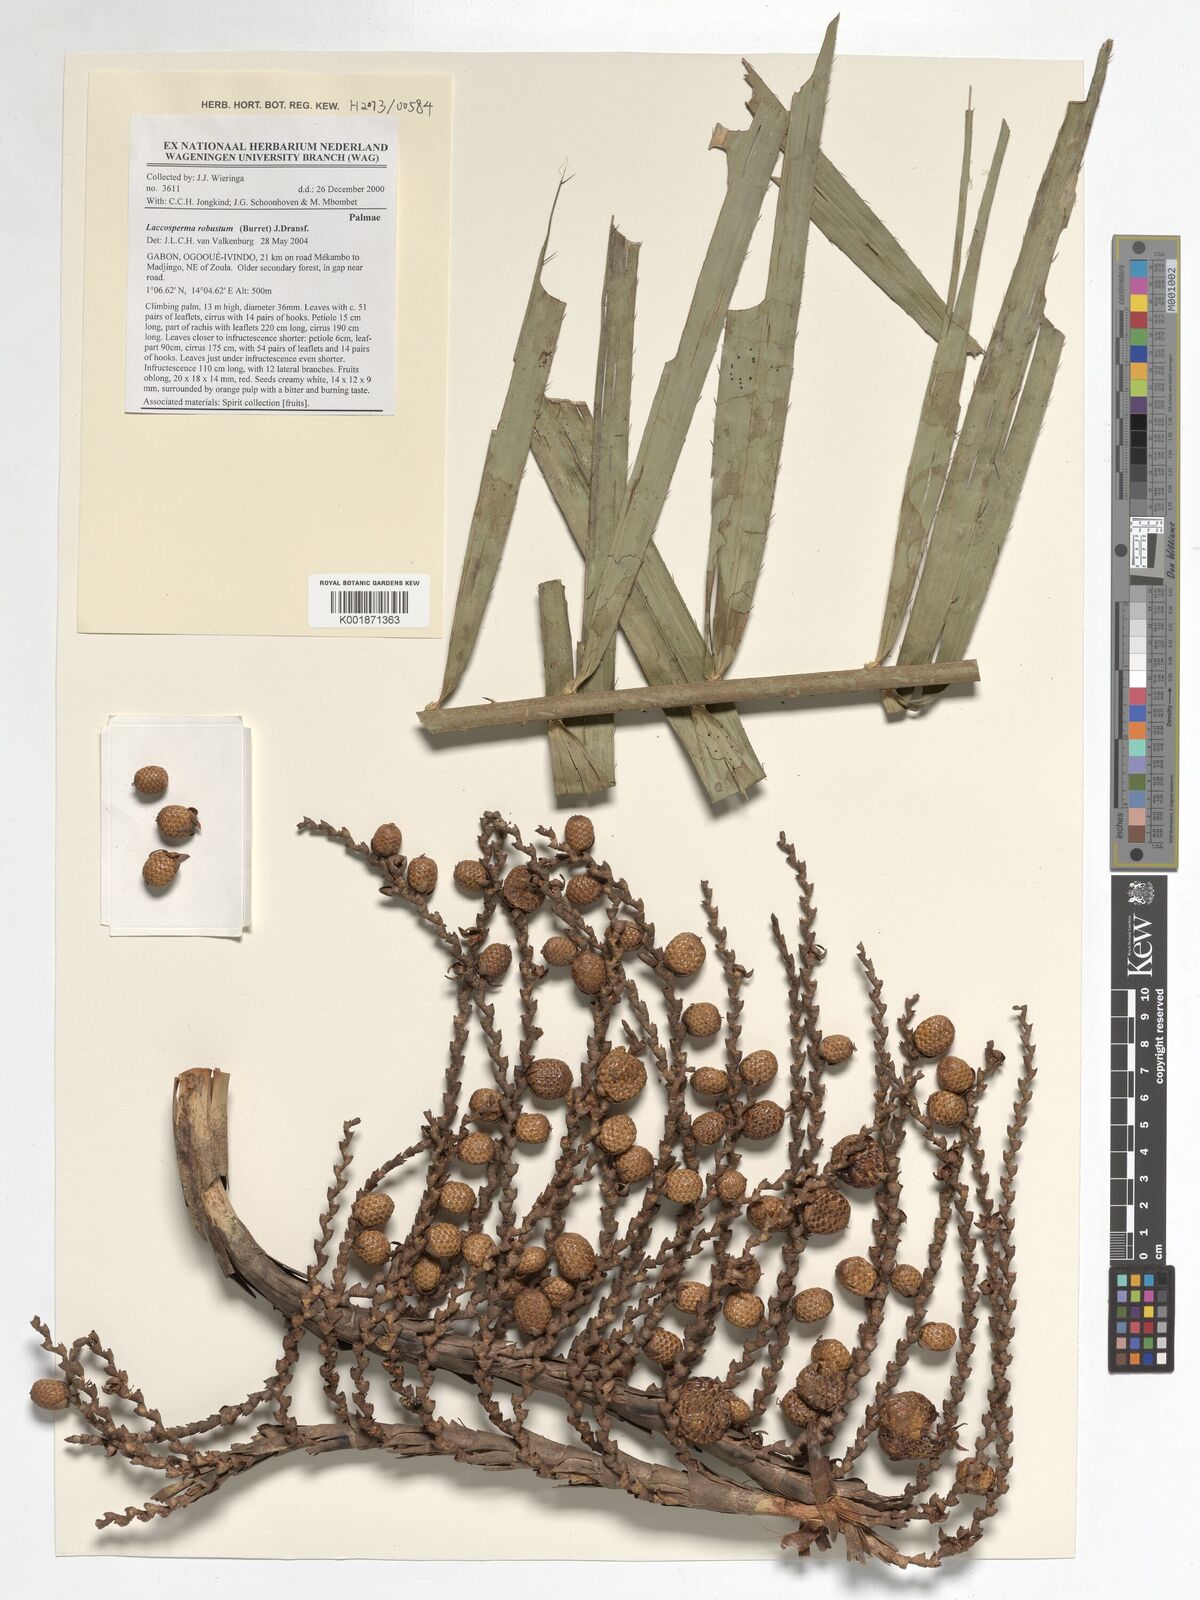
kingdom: Plantae
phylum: Tracheophyta
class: Liliopsida
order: Arecales
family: Arecaceae
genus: Laccosperma
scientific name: Laccosperma robustum
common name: Rattan
